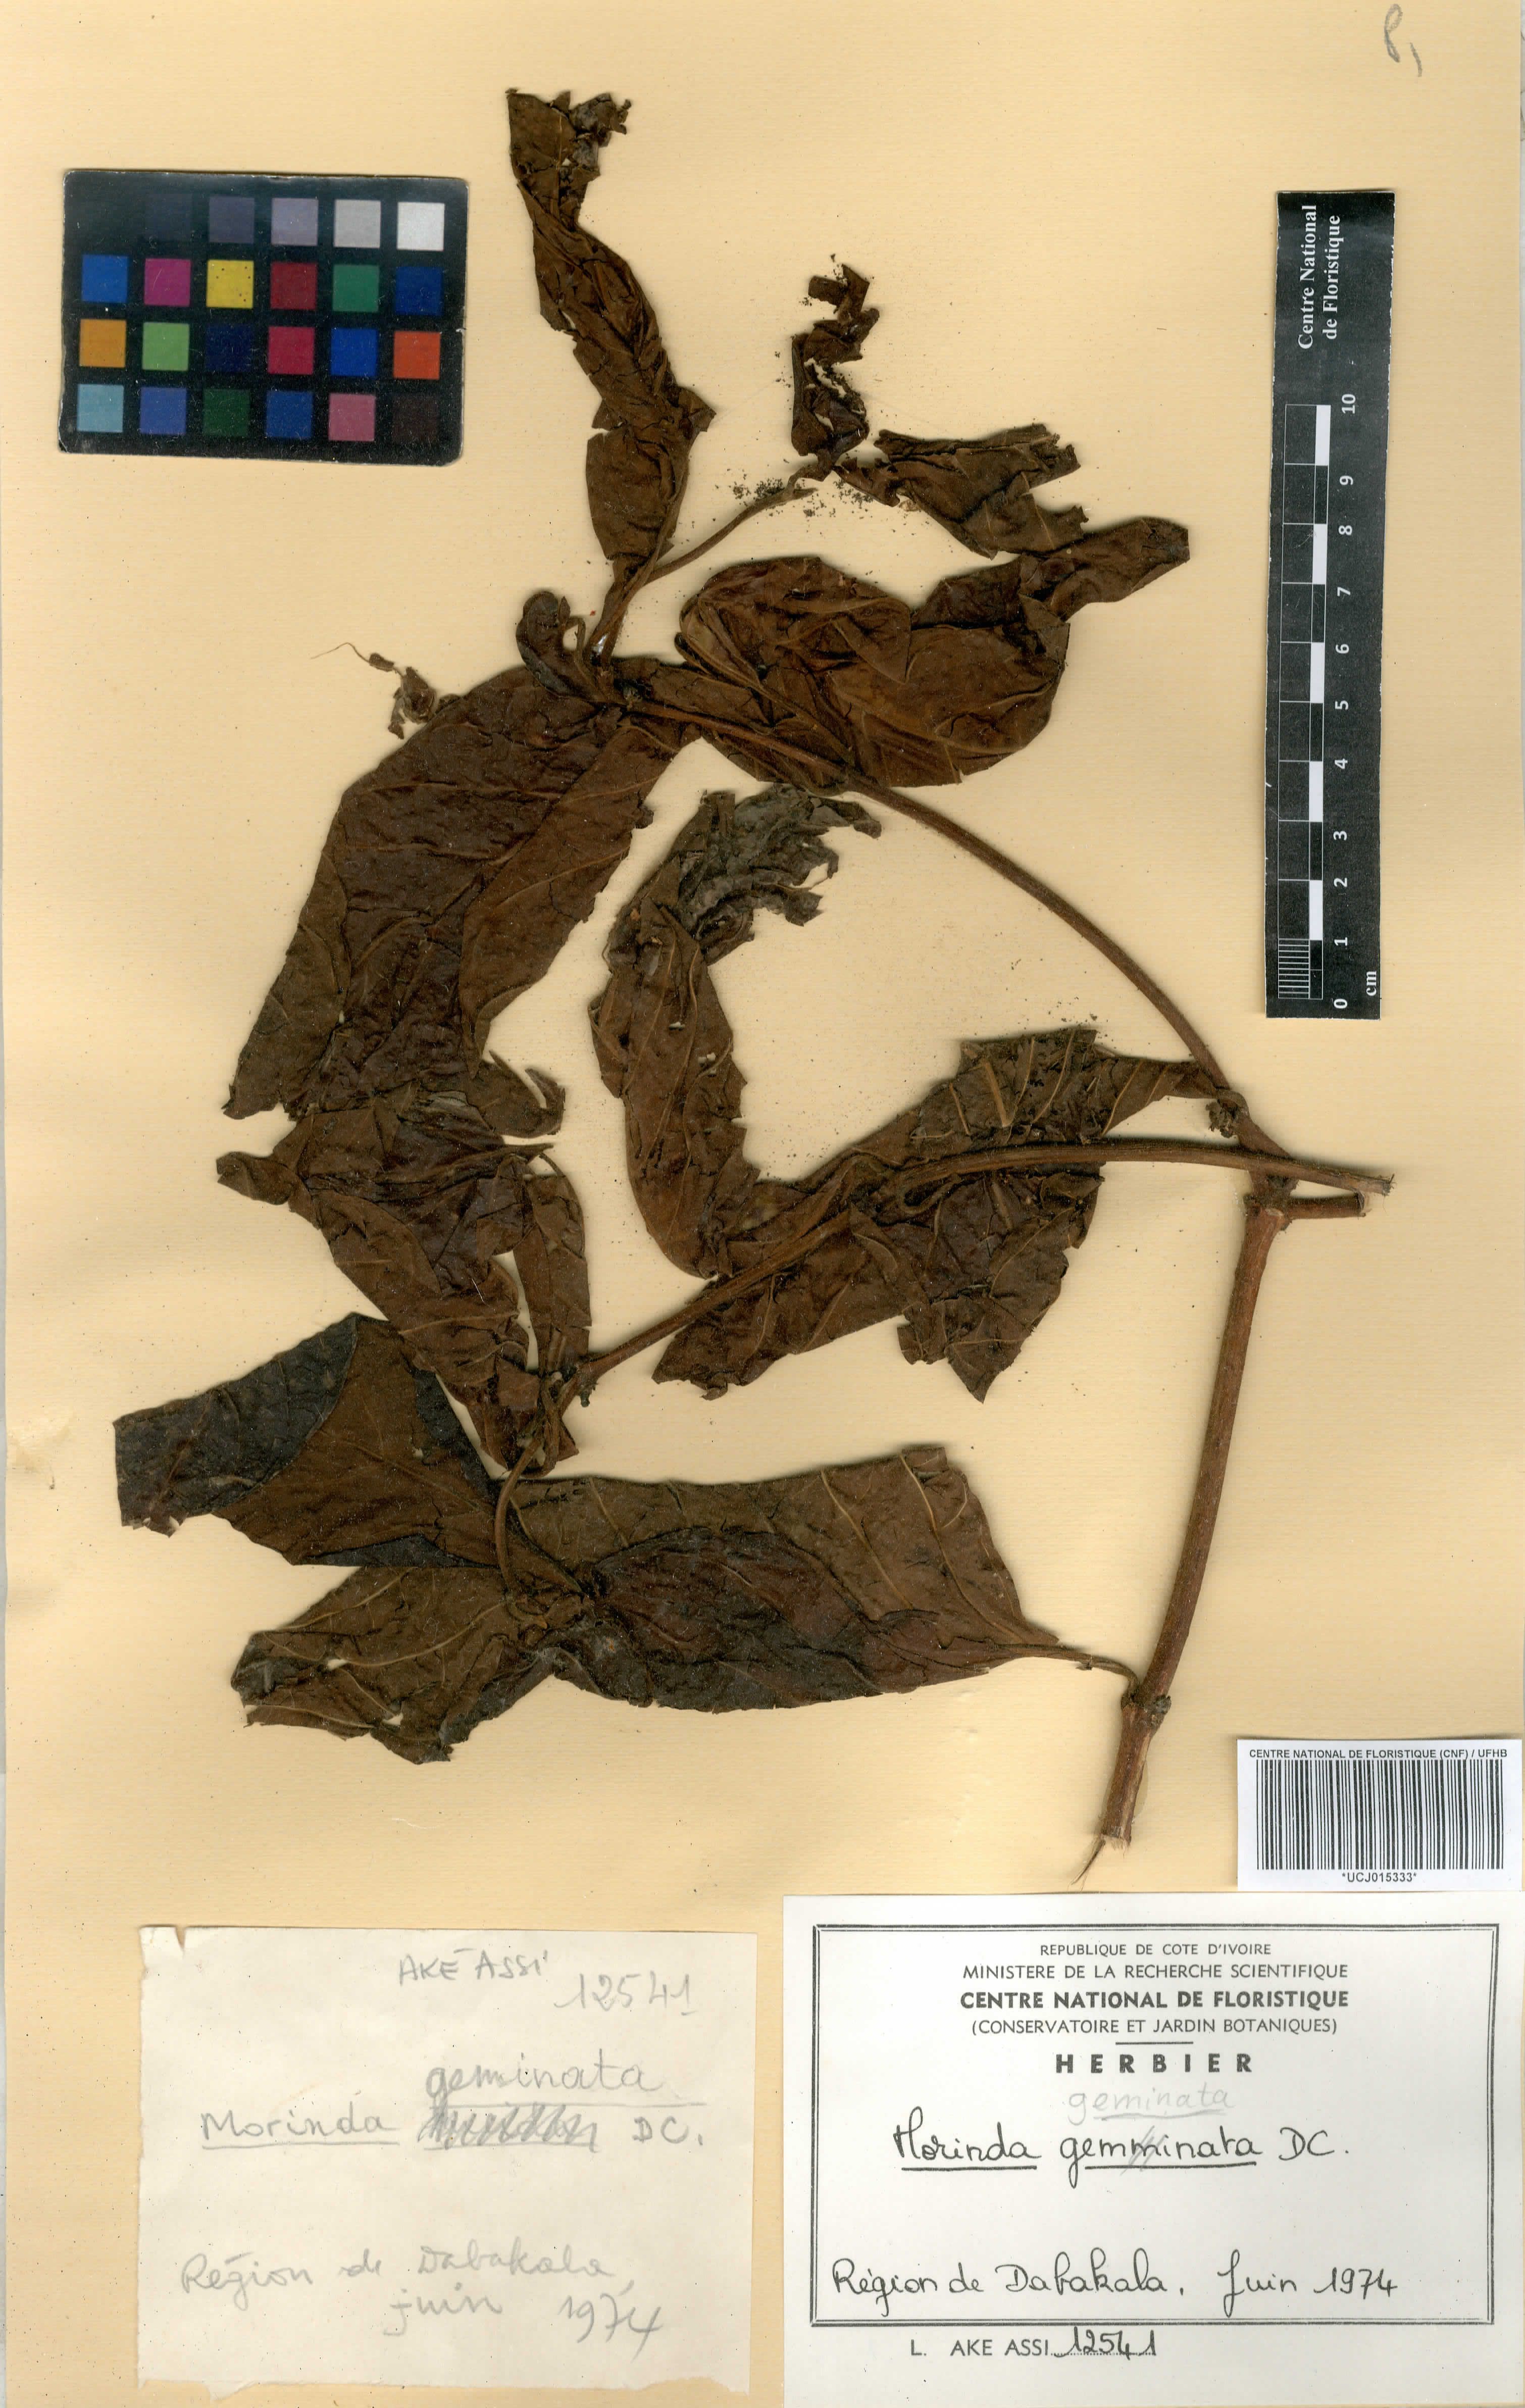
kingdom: Plantae
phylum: Tracheophyta
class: Magnoliopsida
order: Gentianales
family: Rubiaceae
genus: Morinda
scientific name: Morinda chrysorhiza
